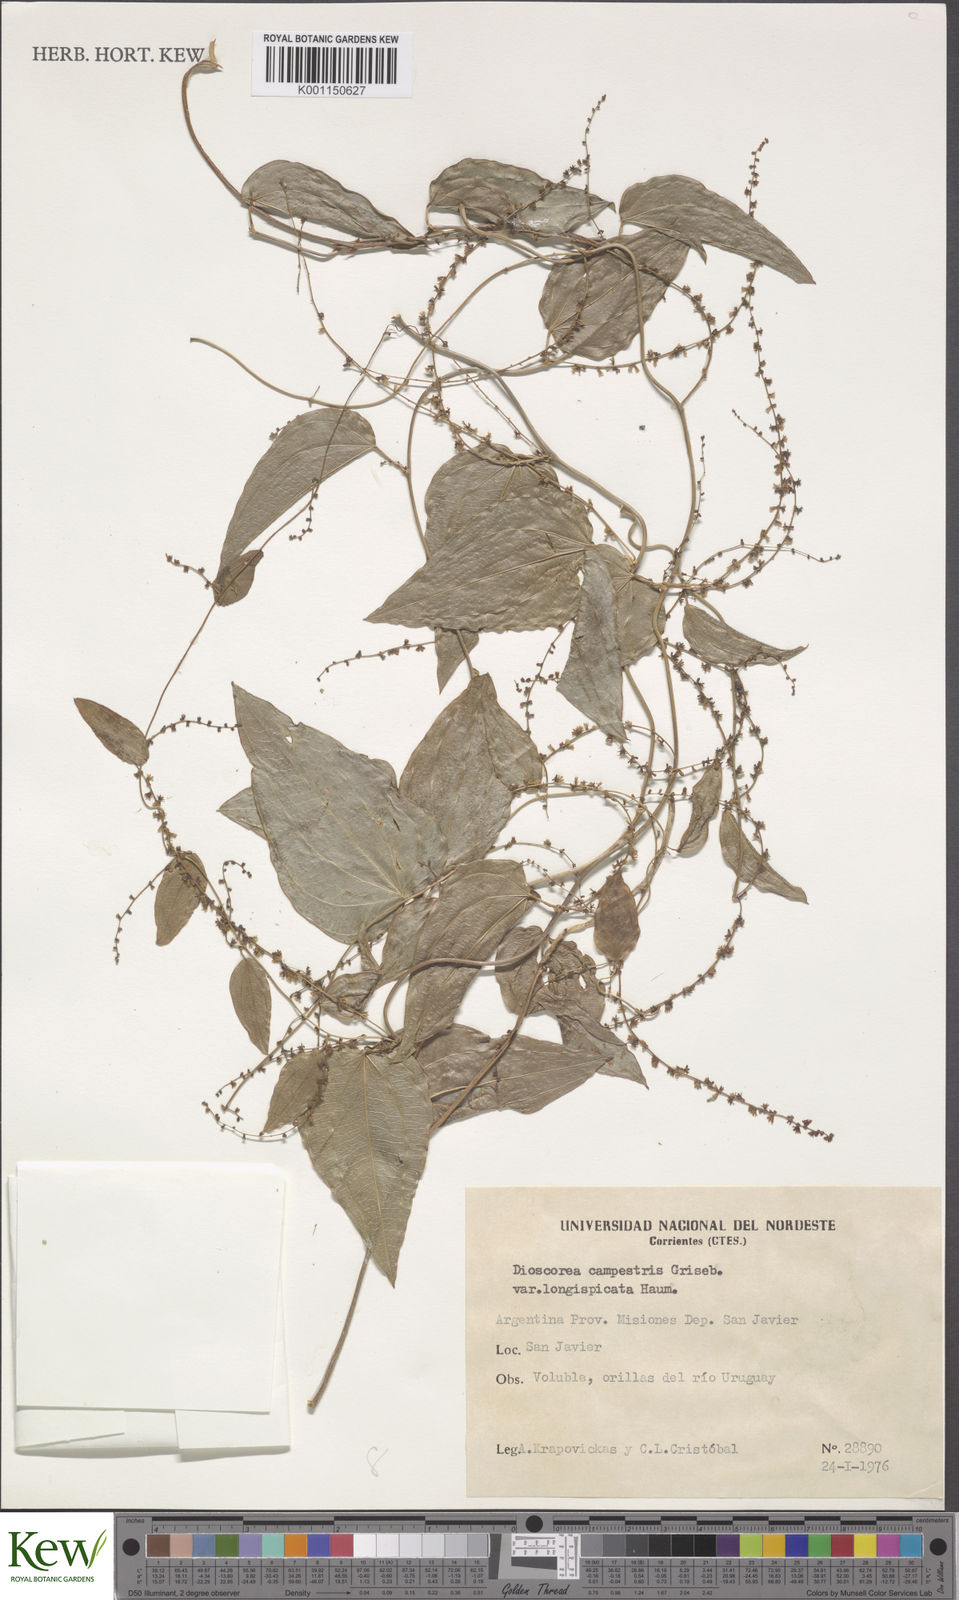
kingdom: Plantae
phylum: Tracheophyta
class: Liliopsida
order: Dioscoreales
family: Dioscoreaceae
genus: Dioscorea
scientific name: Dioscorea campestris
